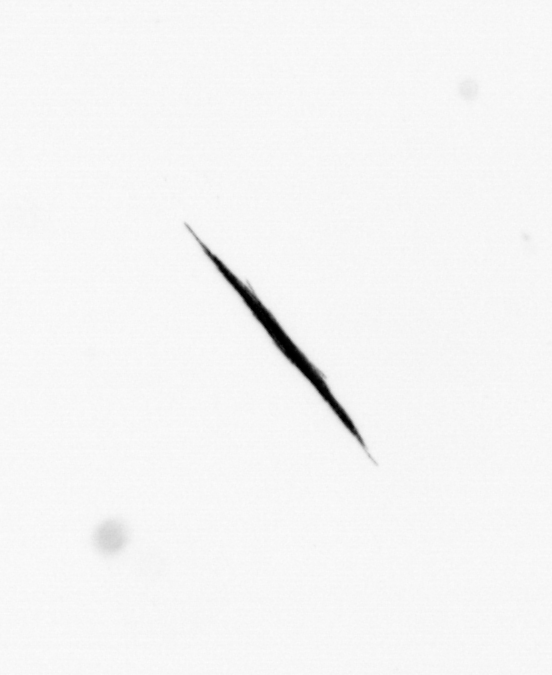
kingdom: Bacteria
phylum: Cyanobacteria
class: Cyanobacteriia
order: Cyanobacteriales
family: Microcoleaceae
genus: Trichodesmium
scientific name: Trichodesmium
